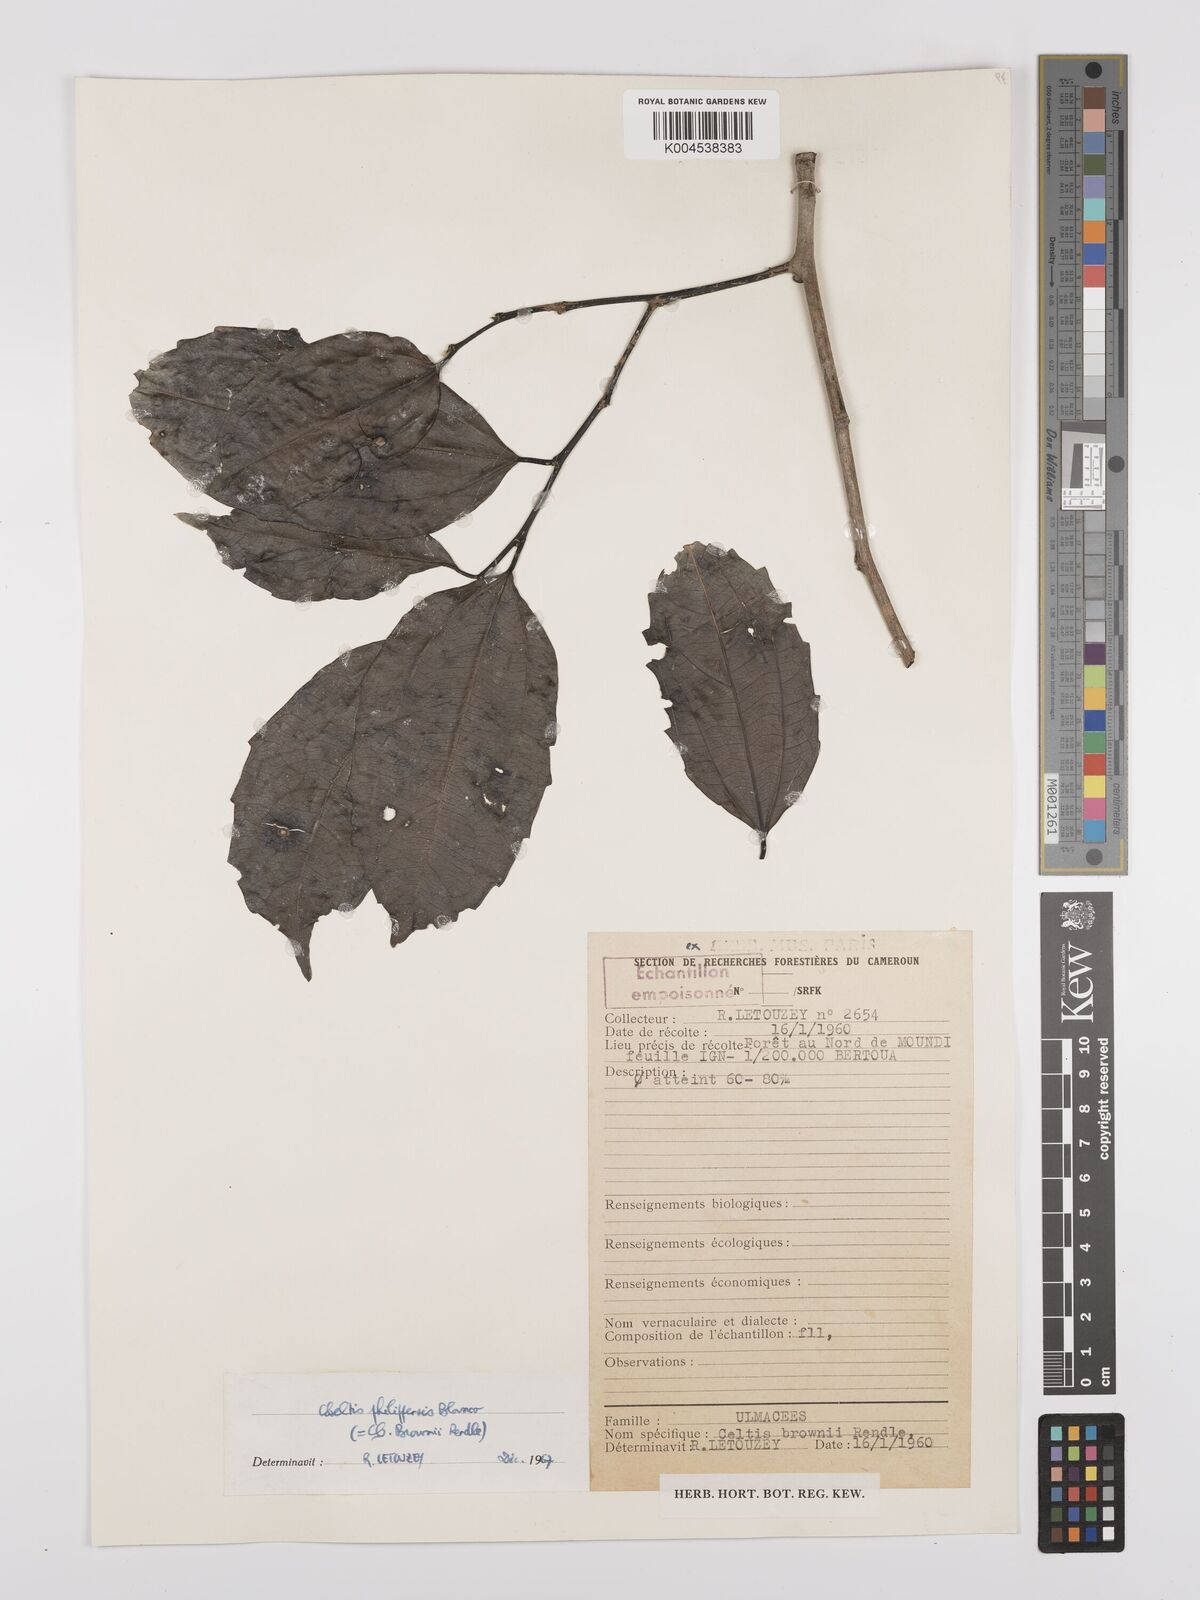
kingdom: Plantae
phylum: Tracheophyta
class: Magnoliopsida
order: Rosales
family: Cannabaceae
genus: Celtis
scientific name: Celtis philippensis
